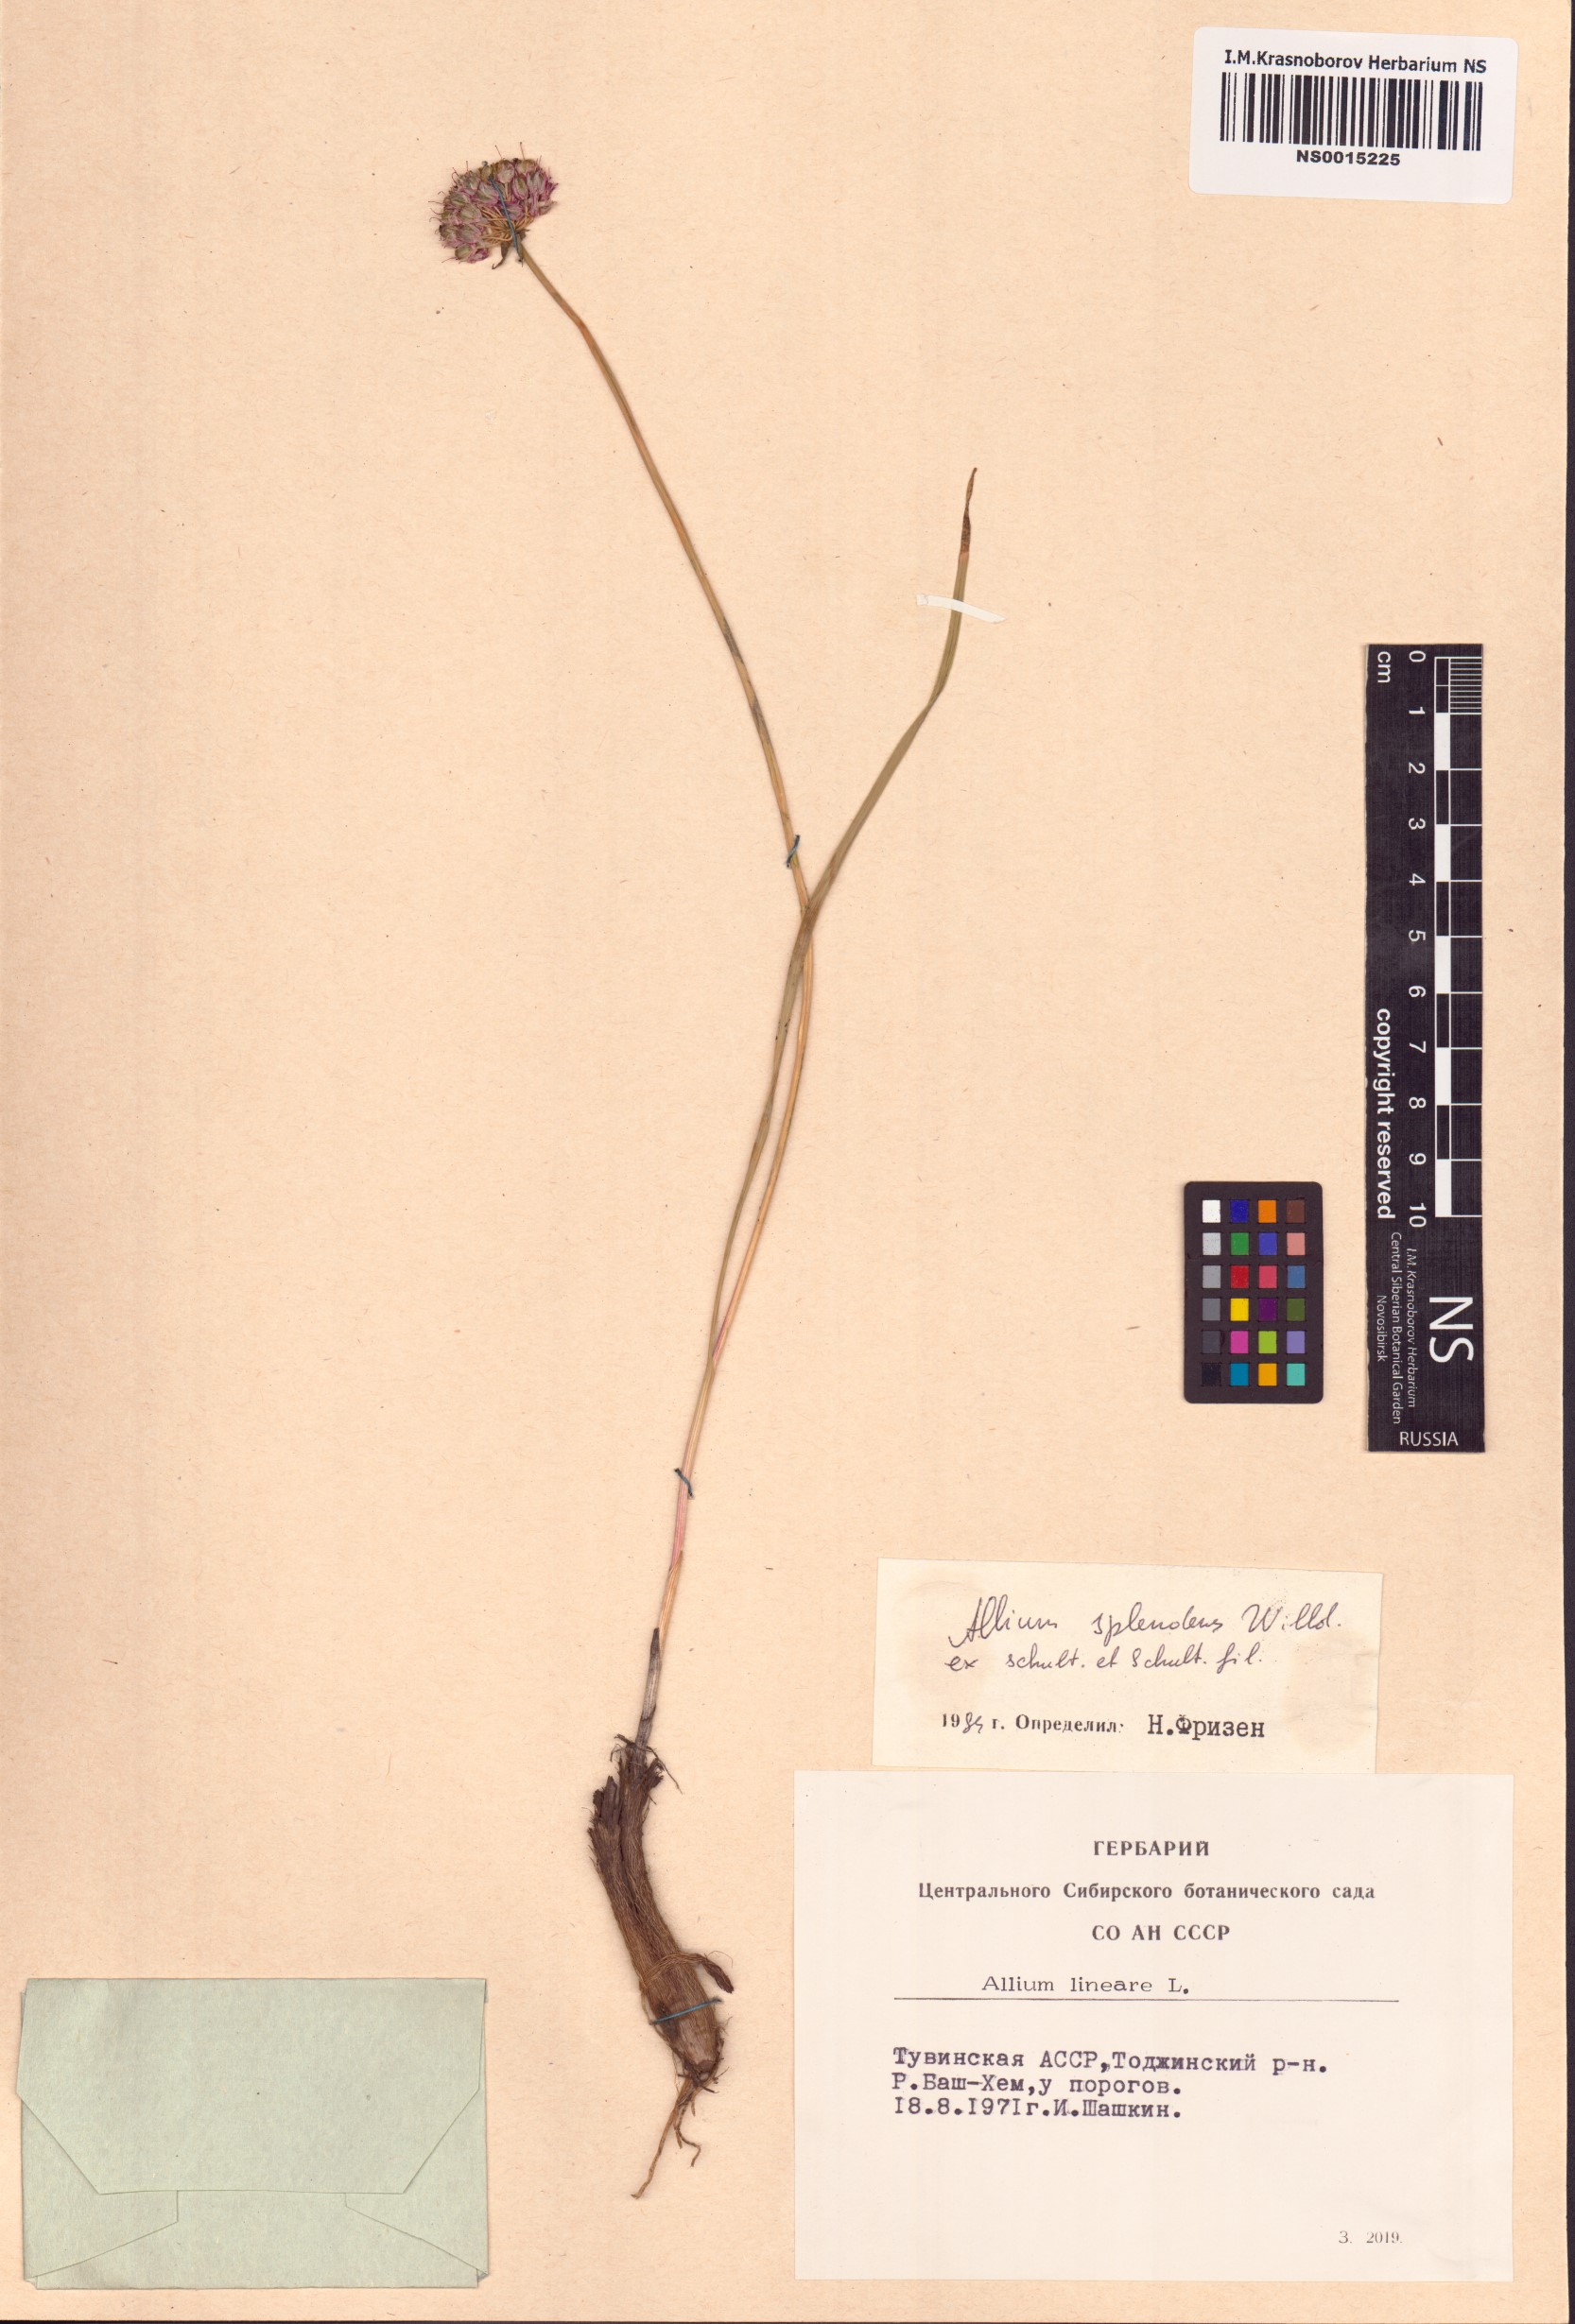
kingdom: Plantae
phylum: Tracheophyta
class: Liliopsida
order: Asparagales
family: Amaryllidaceae
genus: Allium
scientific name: Allium splendens
